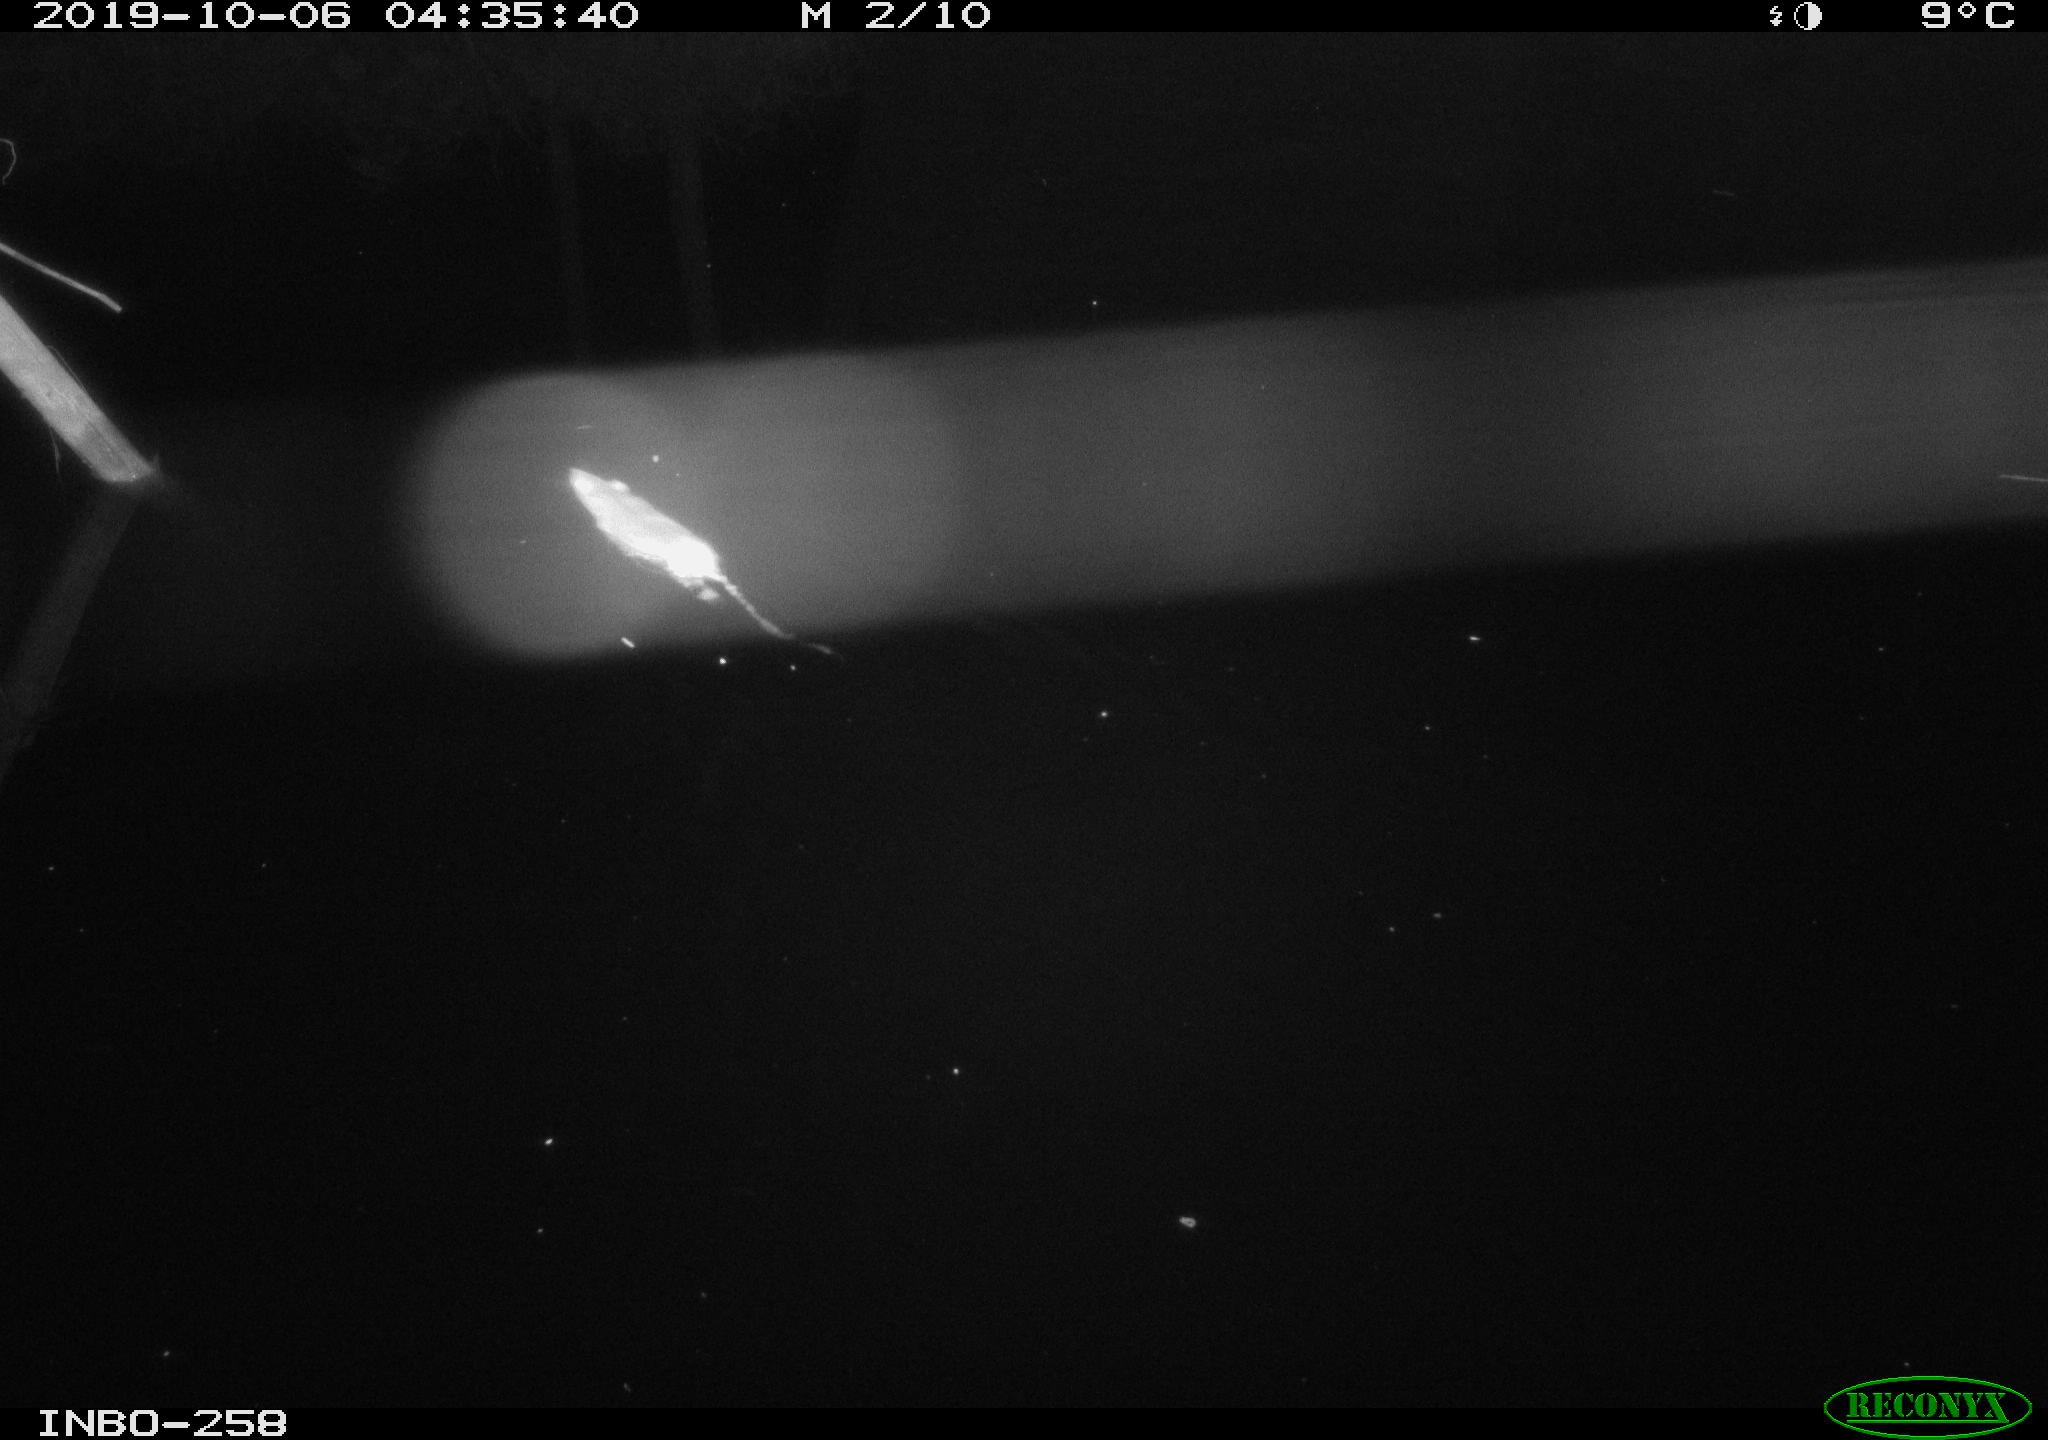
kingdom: Animalia
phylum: Chordata
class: Mammalia
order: Rodentia
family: Muridae
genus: Rattus
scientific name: Rattus norvegicus
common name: Brown rat
